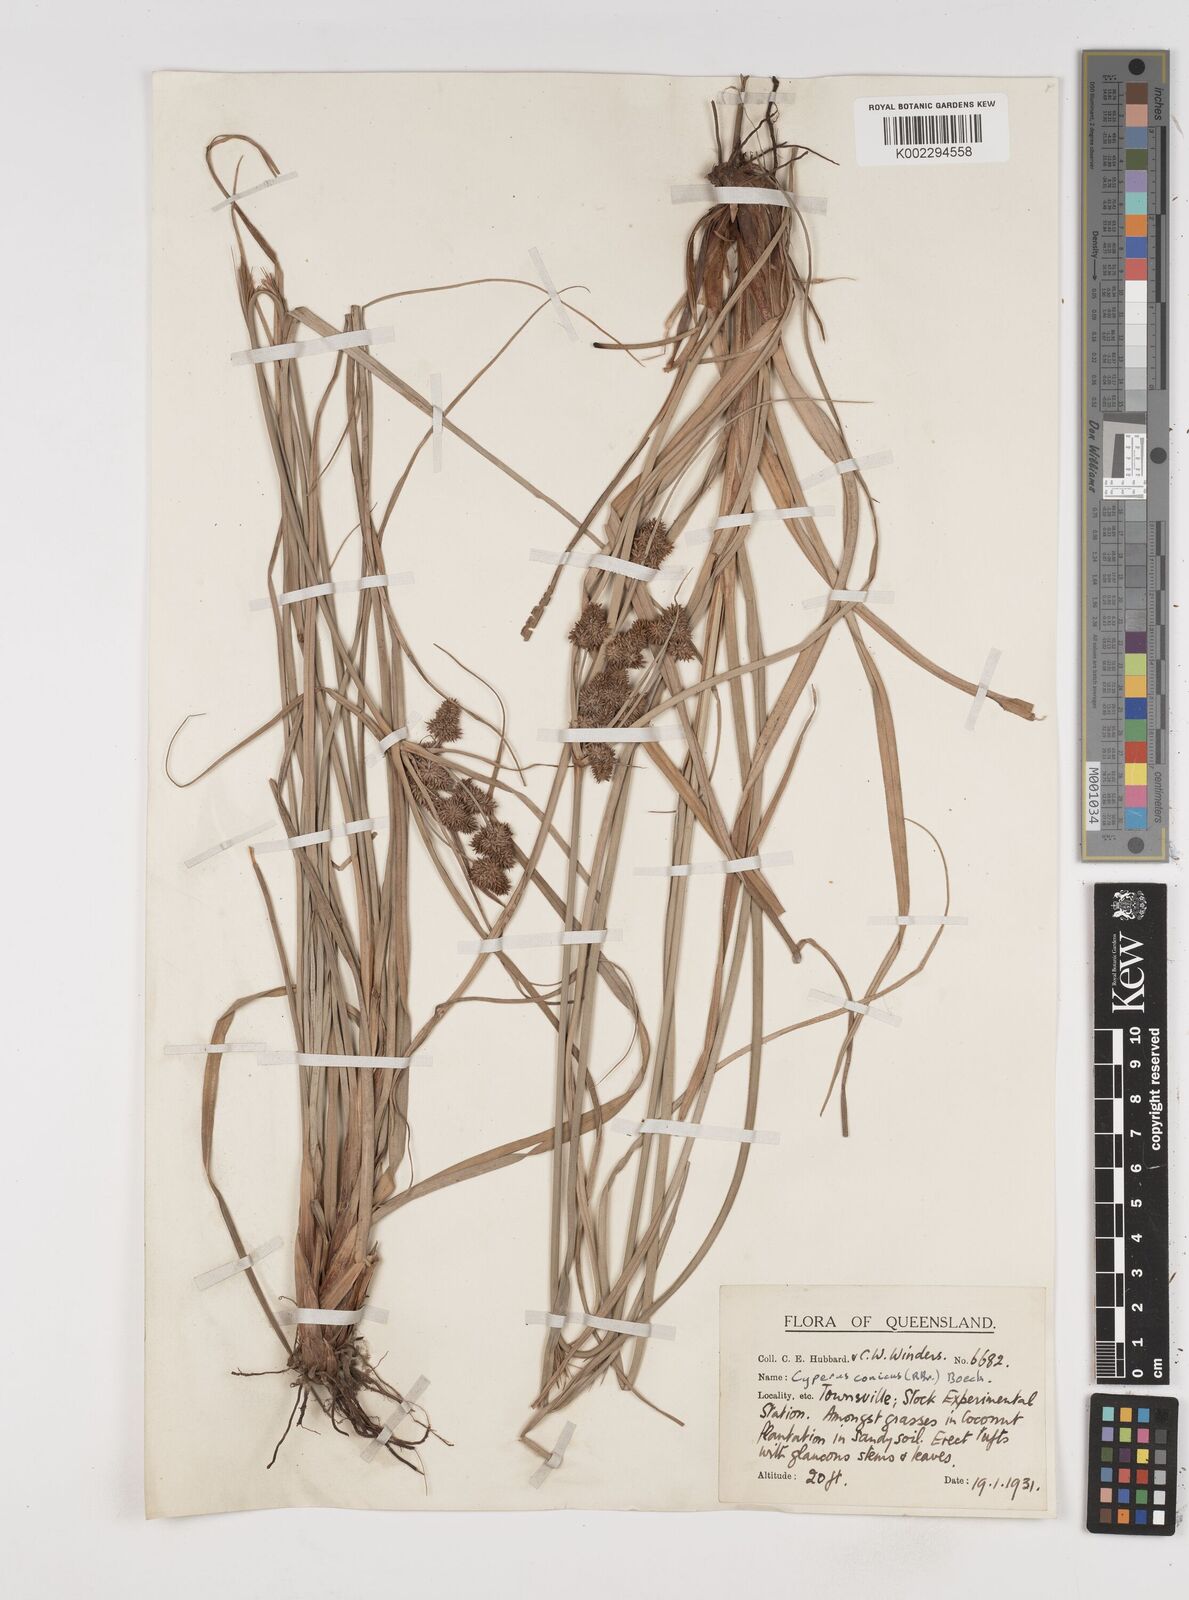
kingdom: Plantae
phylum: Tracheophyta
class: Liliopsida
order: Poales
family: Cyperaceae
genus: Cyperus
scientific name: Cyperus conicus
